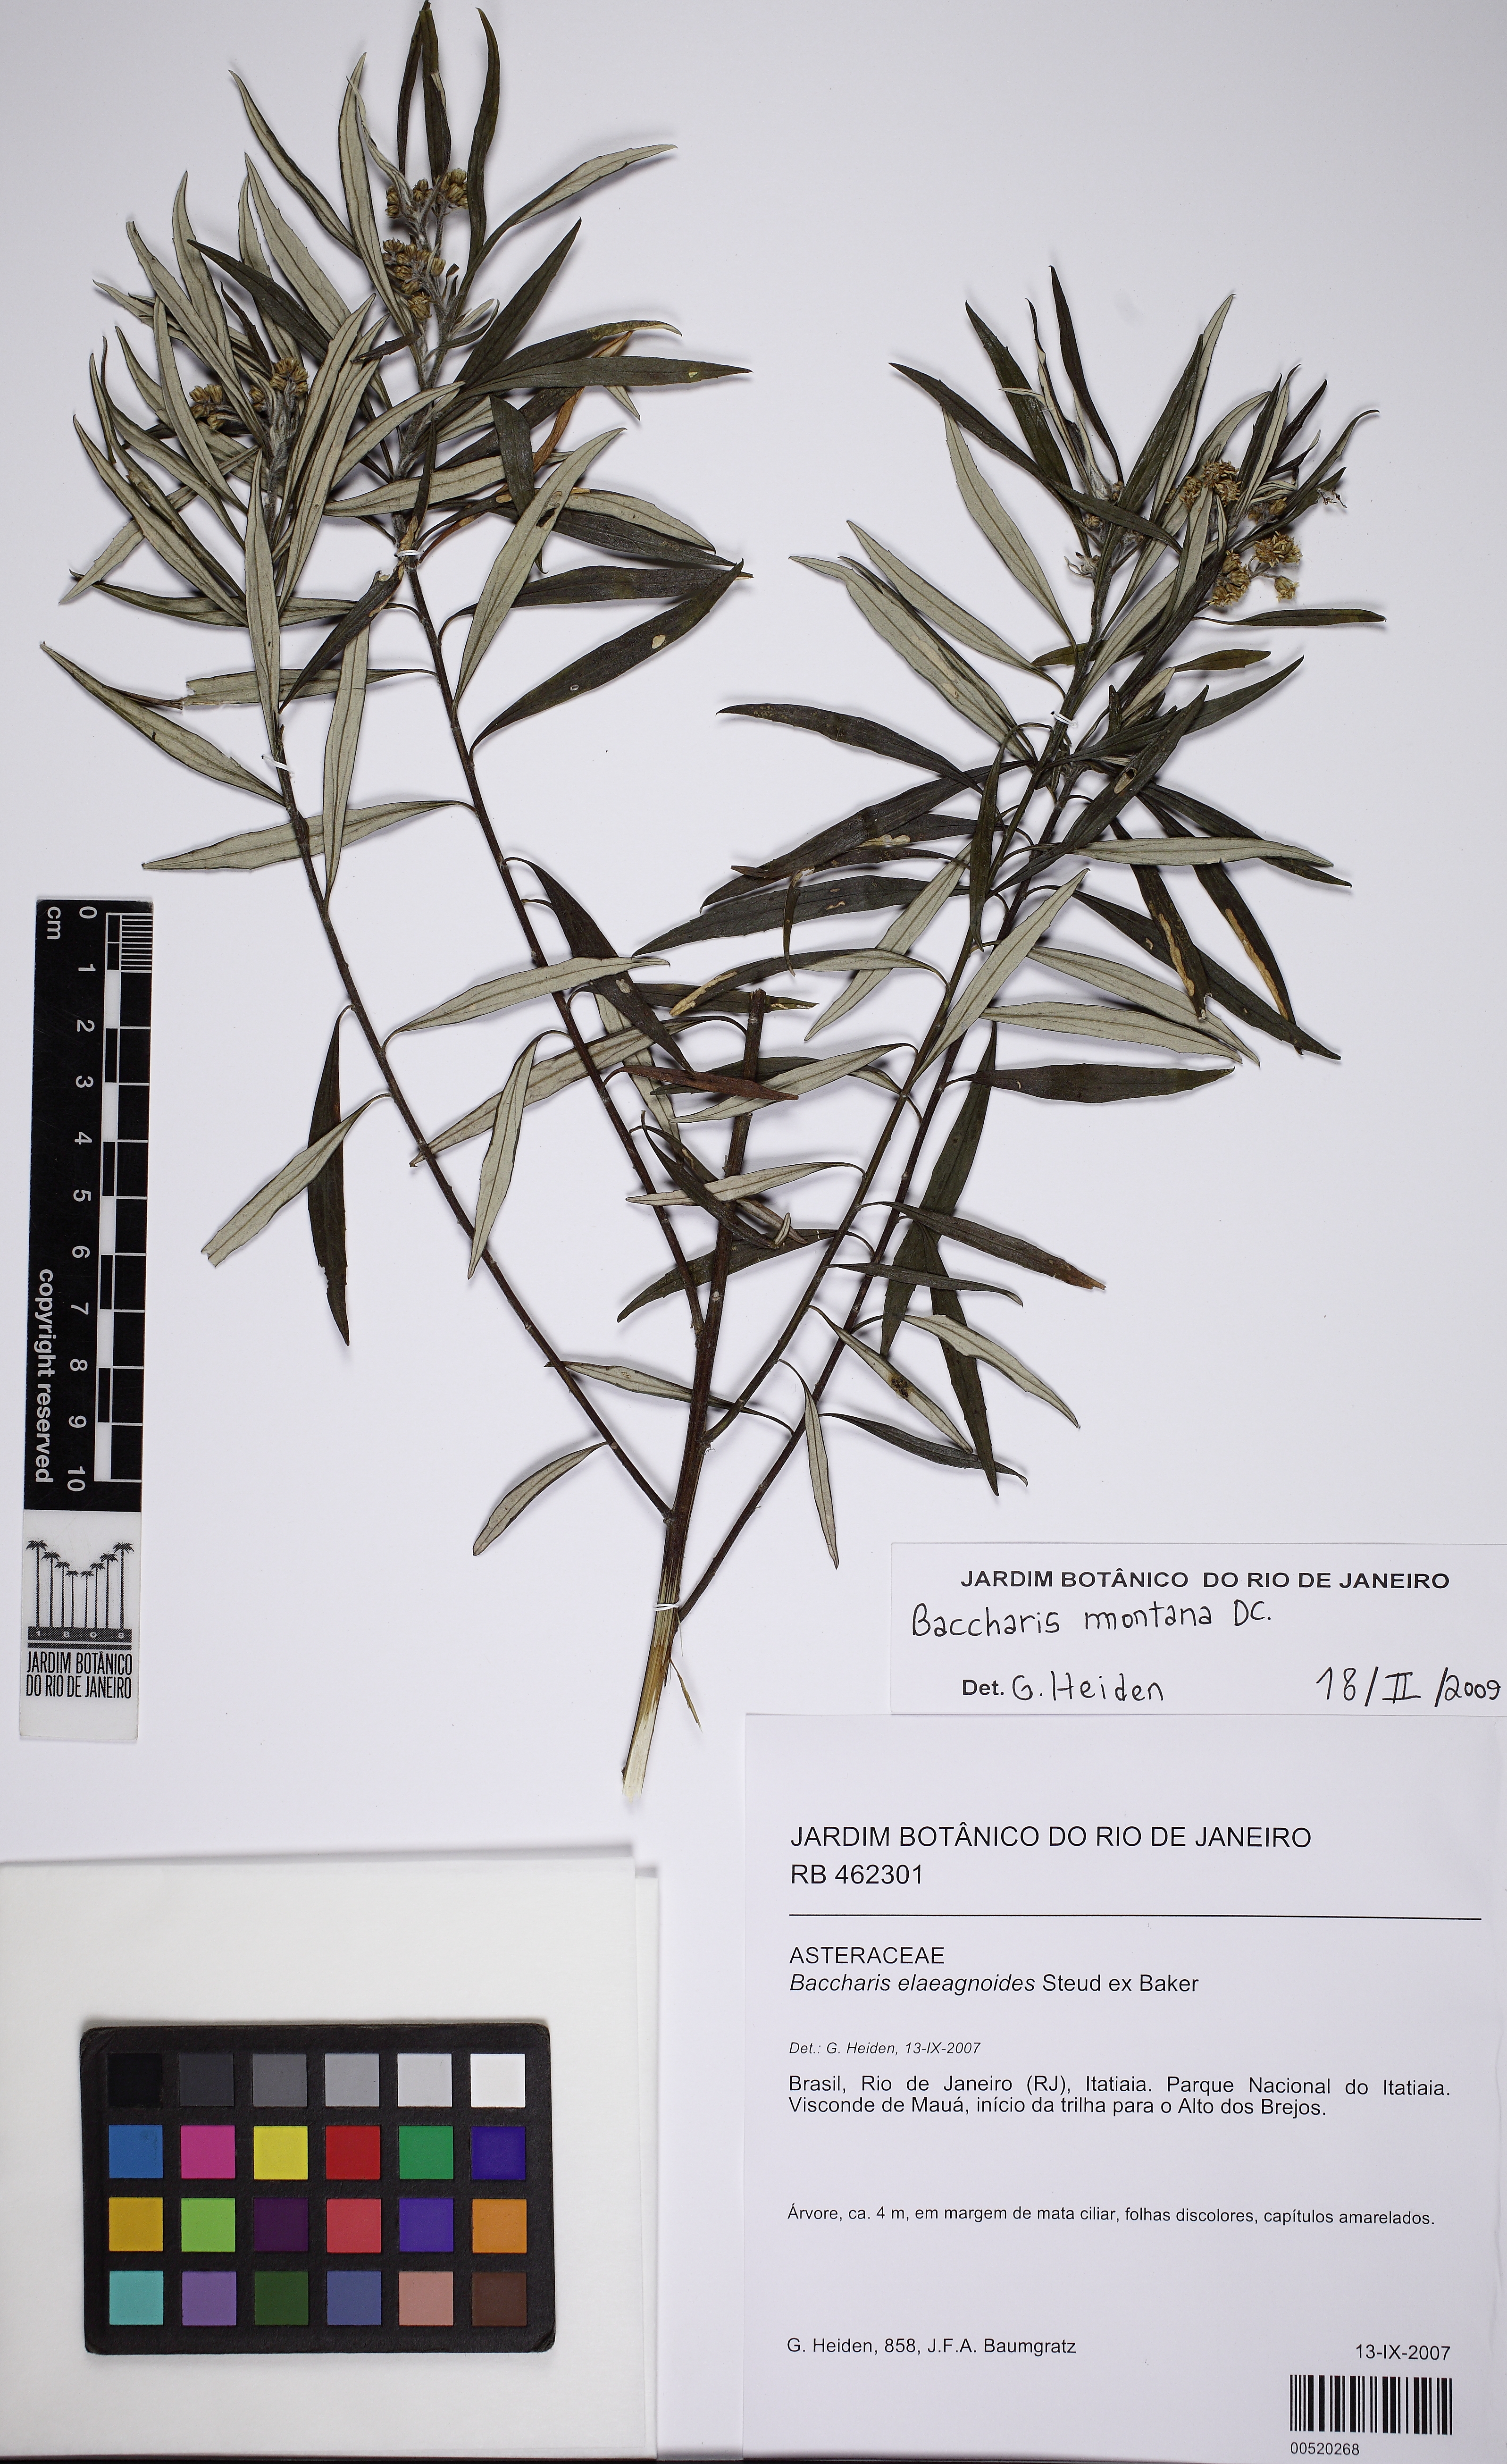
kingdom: Plantae
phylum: Tracheophyta
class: Magnoliopsida
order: Asterales
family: Asteraceae
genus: Baccharis
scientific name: Baccharis montana
